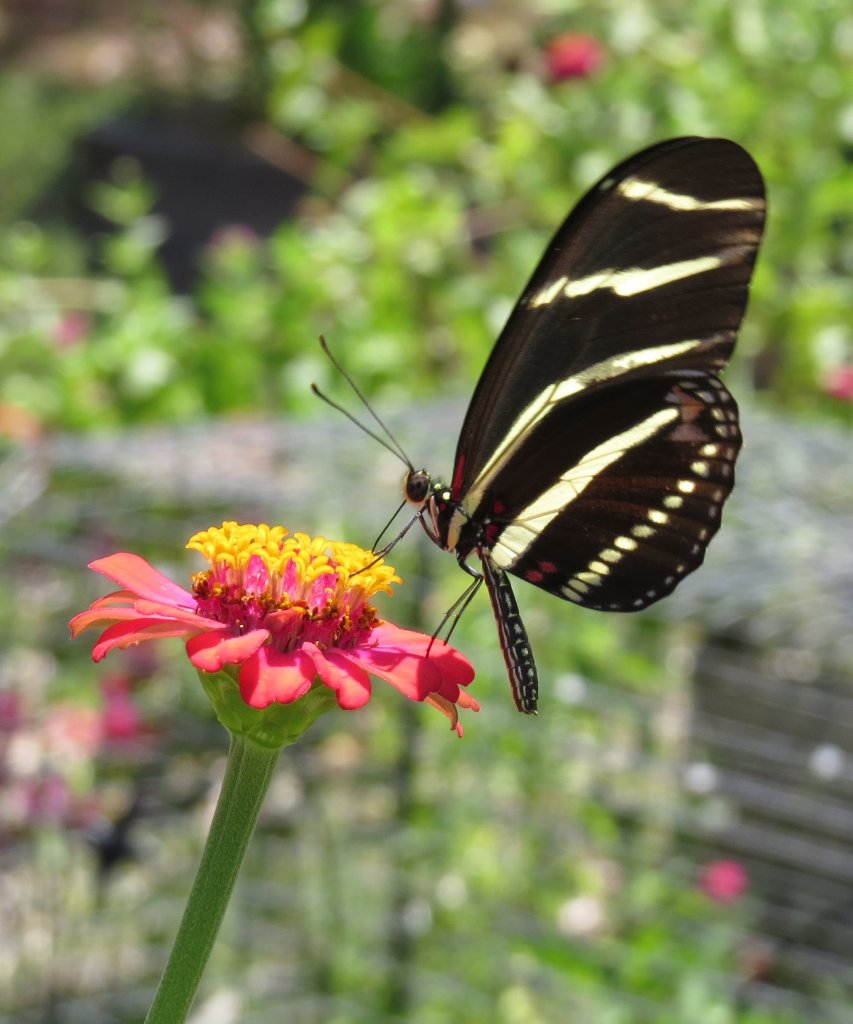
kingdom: Animalia
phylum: Arthropoda
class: Insecta
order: Lepidoptera
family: Nymphalidae
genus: Heliconius
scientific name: Heliconius charithonia
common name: Zebra Longwing
